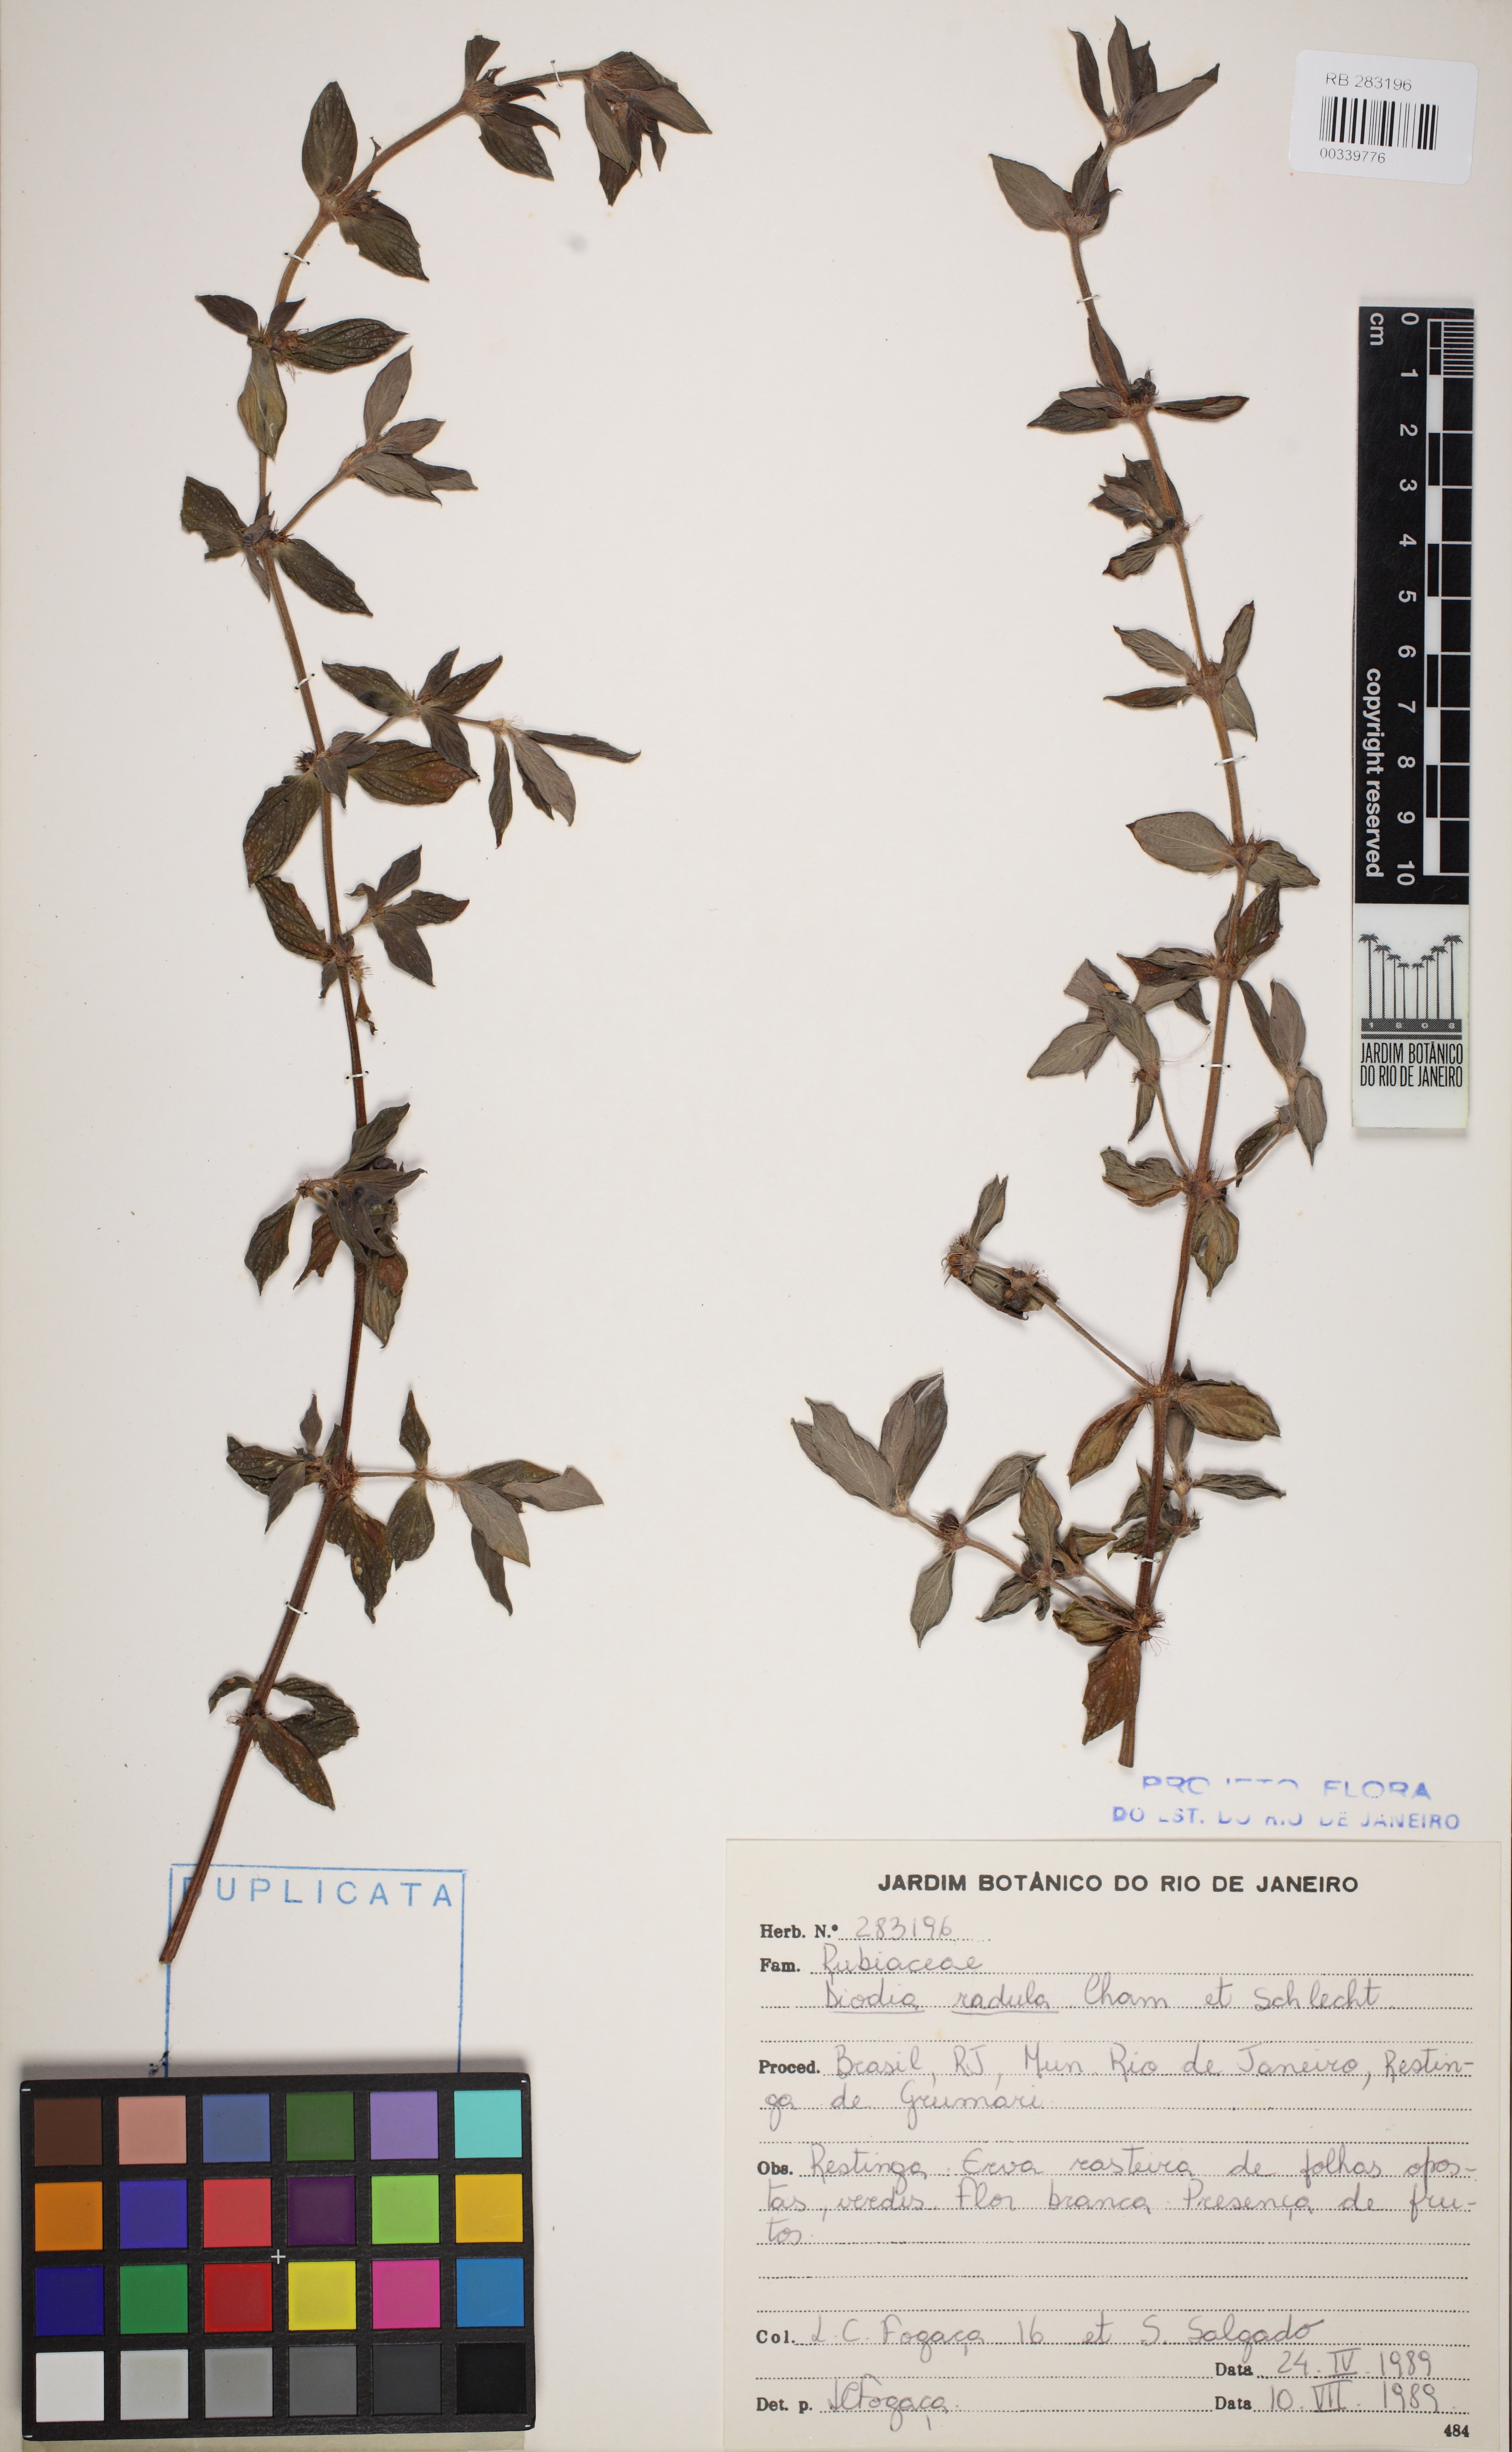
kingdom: Plantae
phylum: Tracheophyta
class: Magnoliopsida
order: Gentianales
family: Rubiaceae
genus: Hexasepalum
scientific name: Hexasepalum radulum
